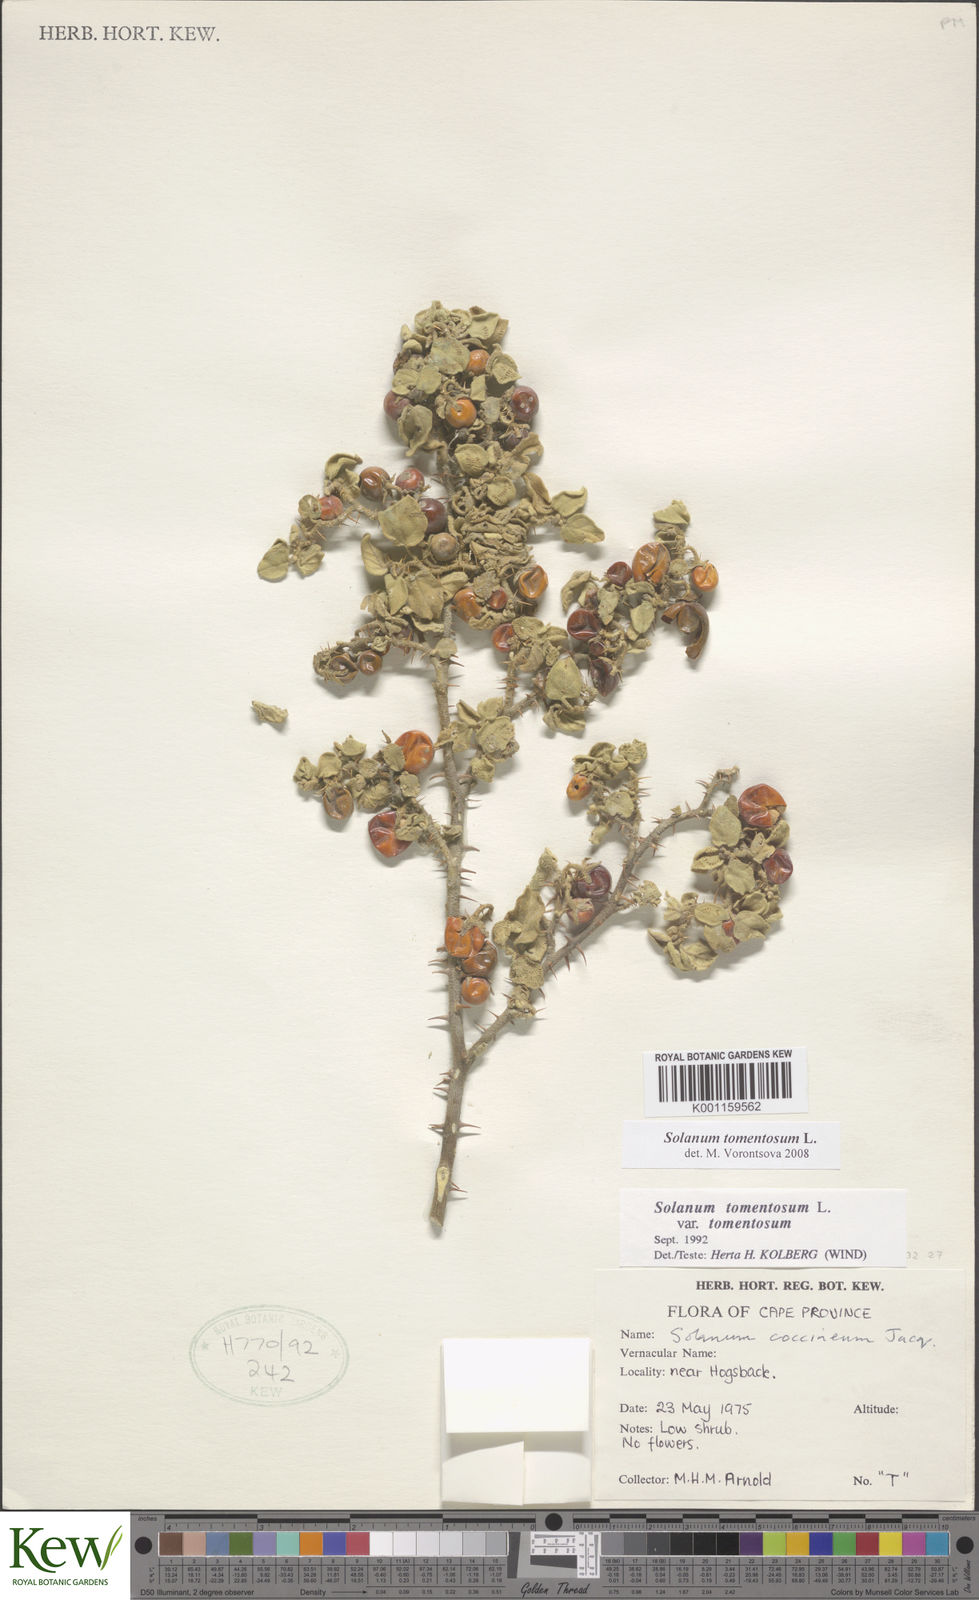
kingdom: Plantae
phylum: Tracheophyta
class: Magnoliopsida
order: Solanales
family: Solanaceae
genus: Solanum
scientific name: Solanum tomentosum
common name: Wild aubergine
